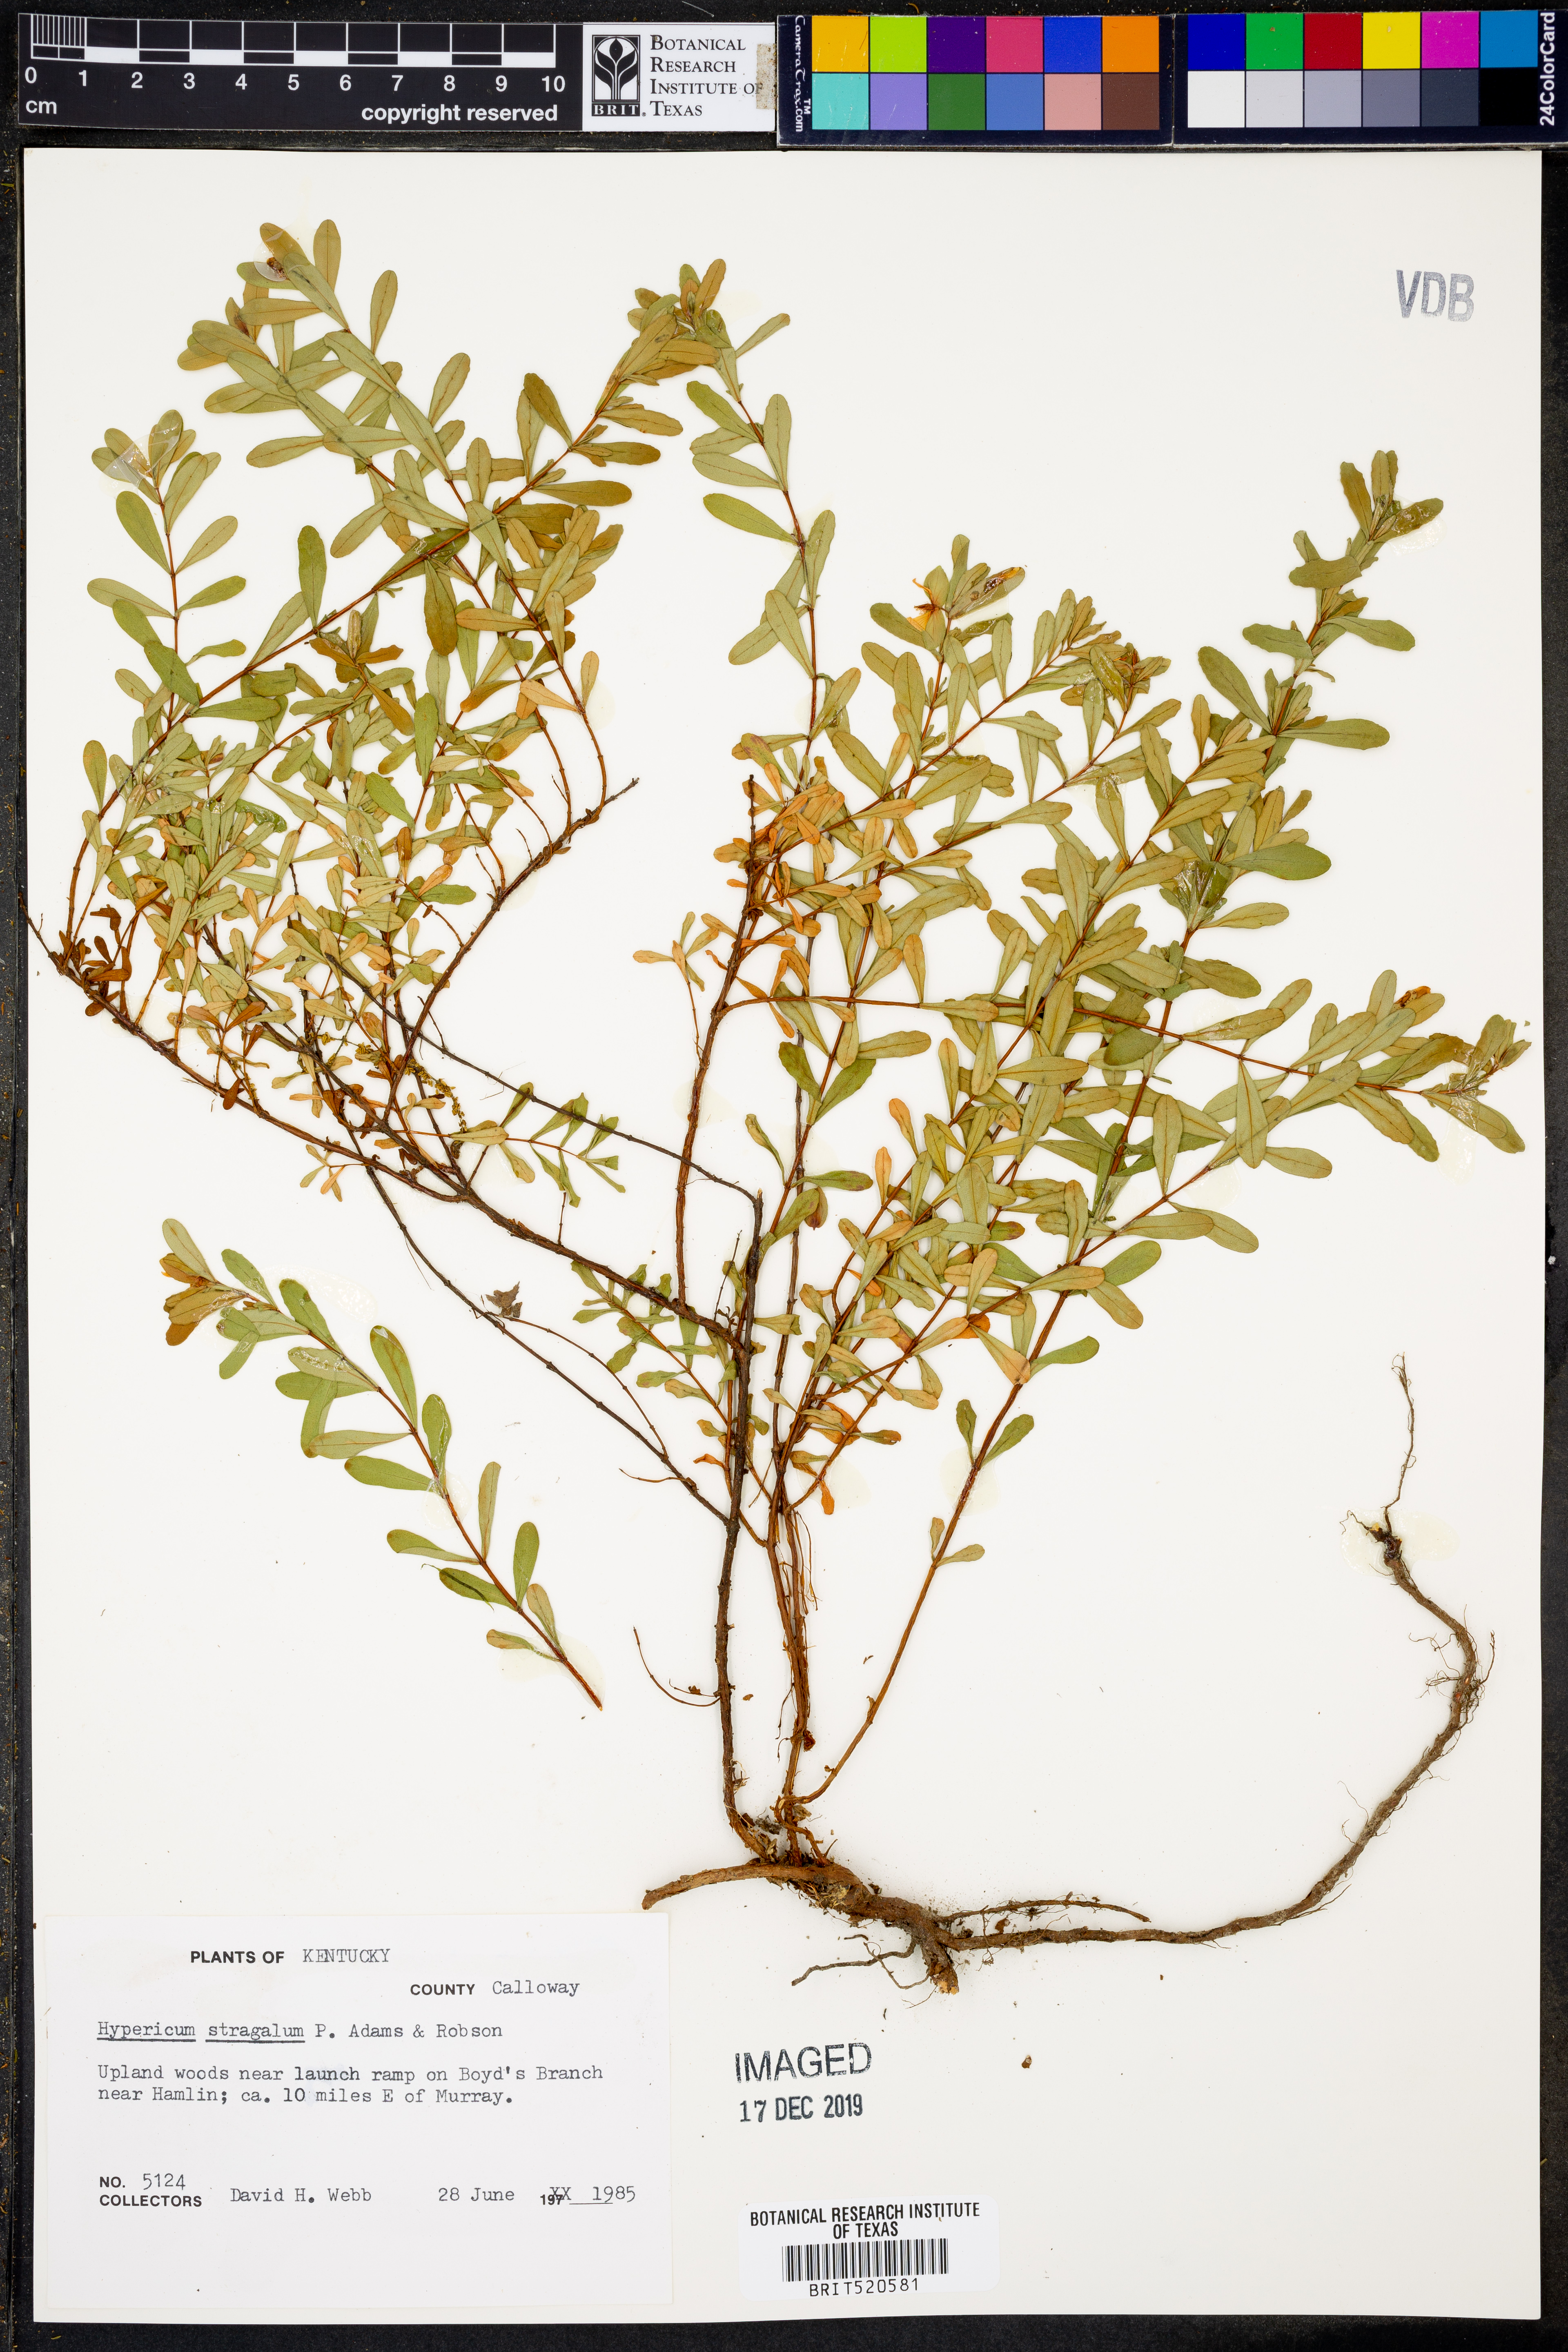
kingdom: Plantae
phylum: Tracheophyta
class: Magnoliopsida
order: Malpighiales
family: Hypericaceae
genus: Hypericum
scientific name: Hypericum hypericoides
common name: St. andrew's cross
